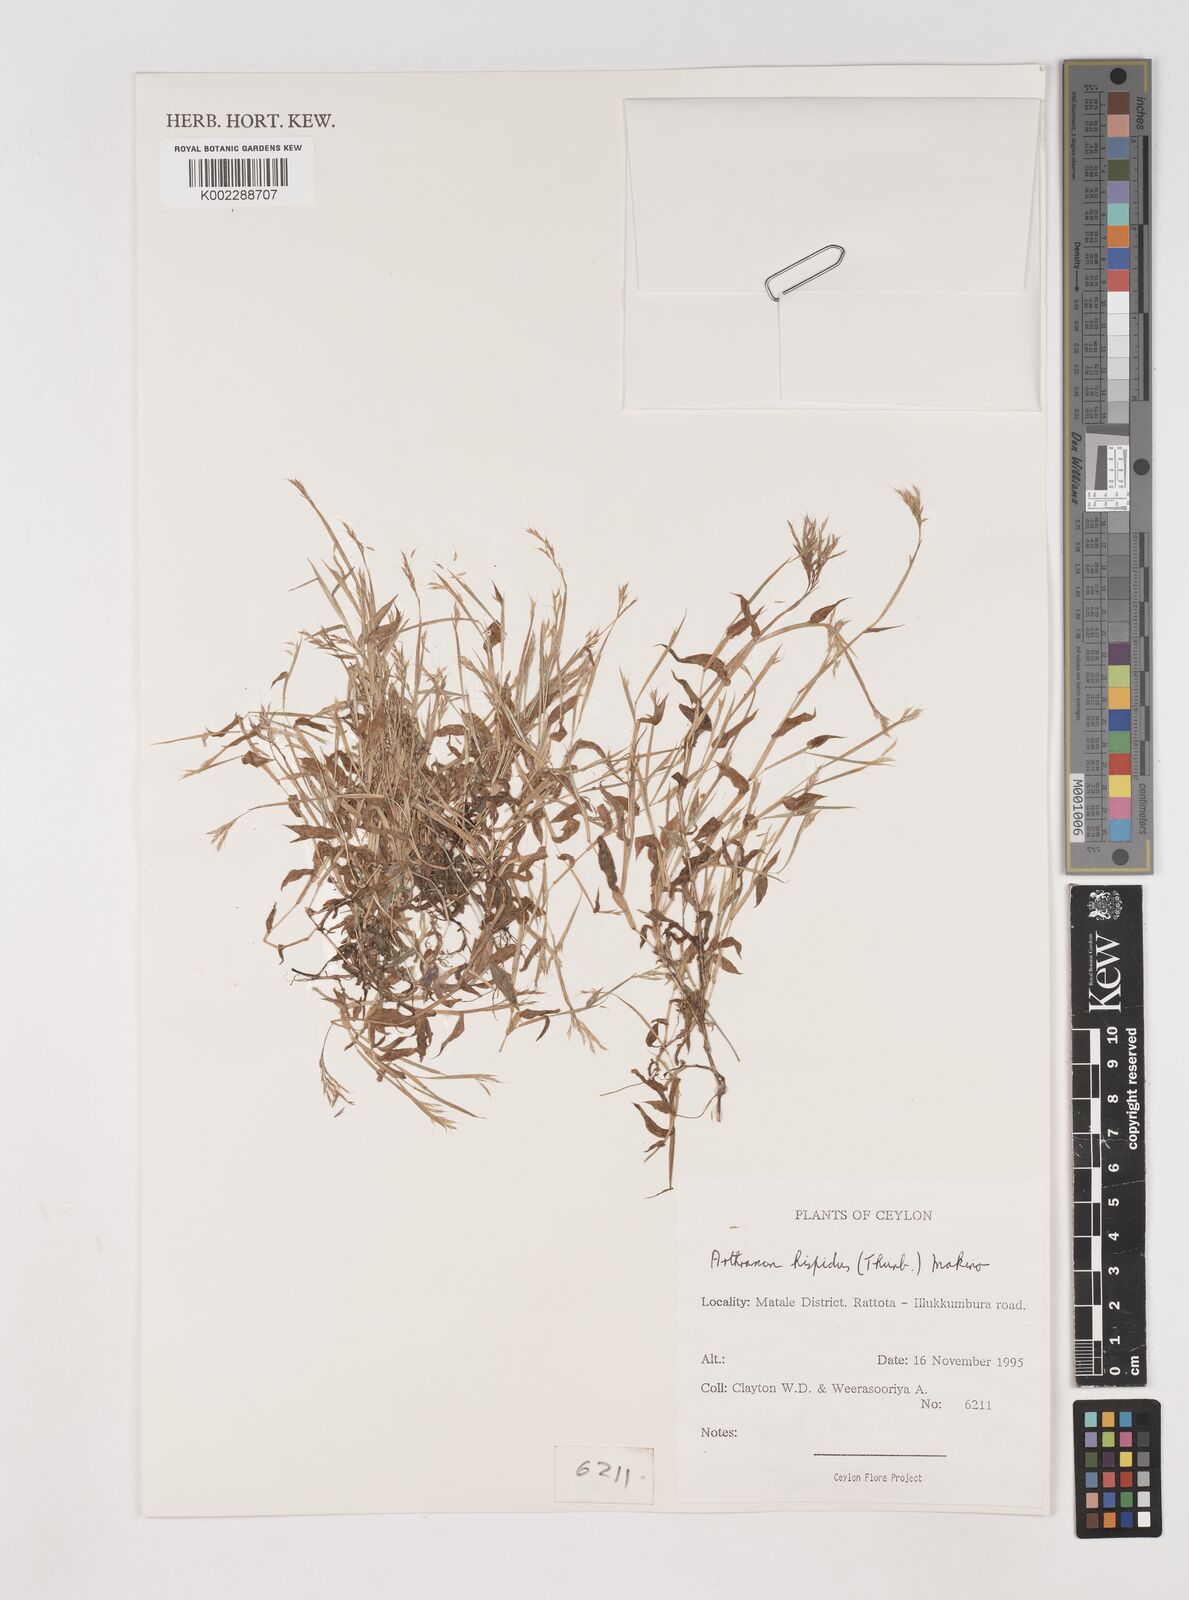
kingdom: Plantae
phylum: Tracheophyta
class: Liliopsida
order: Poales
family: Poaceae
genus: Arthraxon
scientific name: Arthraxon hispidus
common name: Small carpgrass
